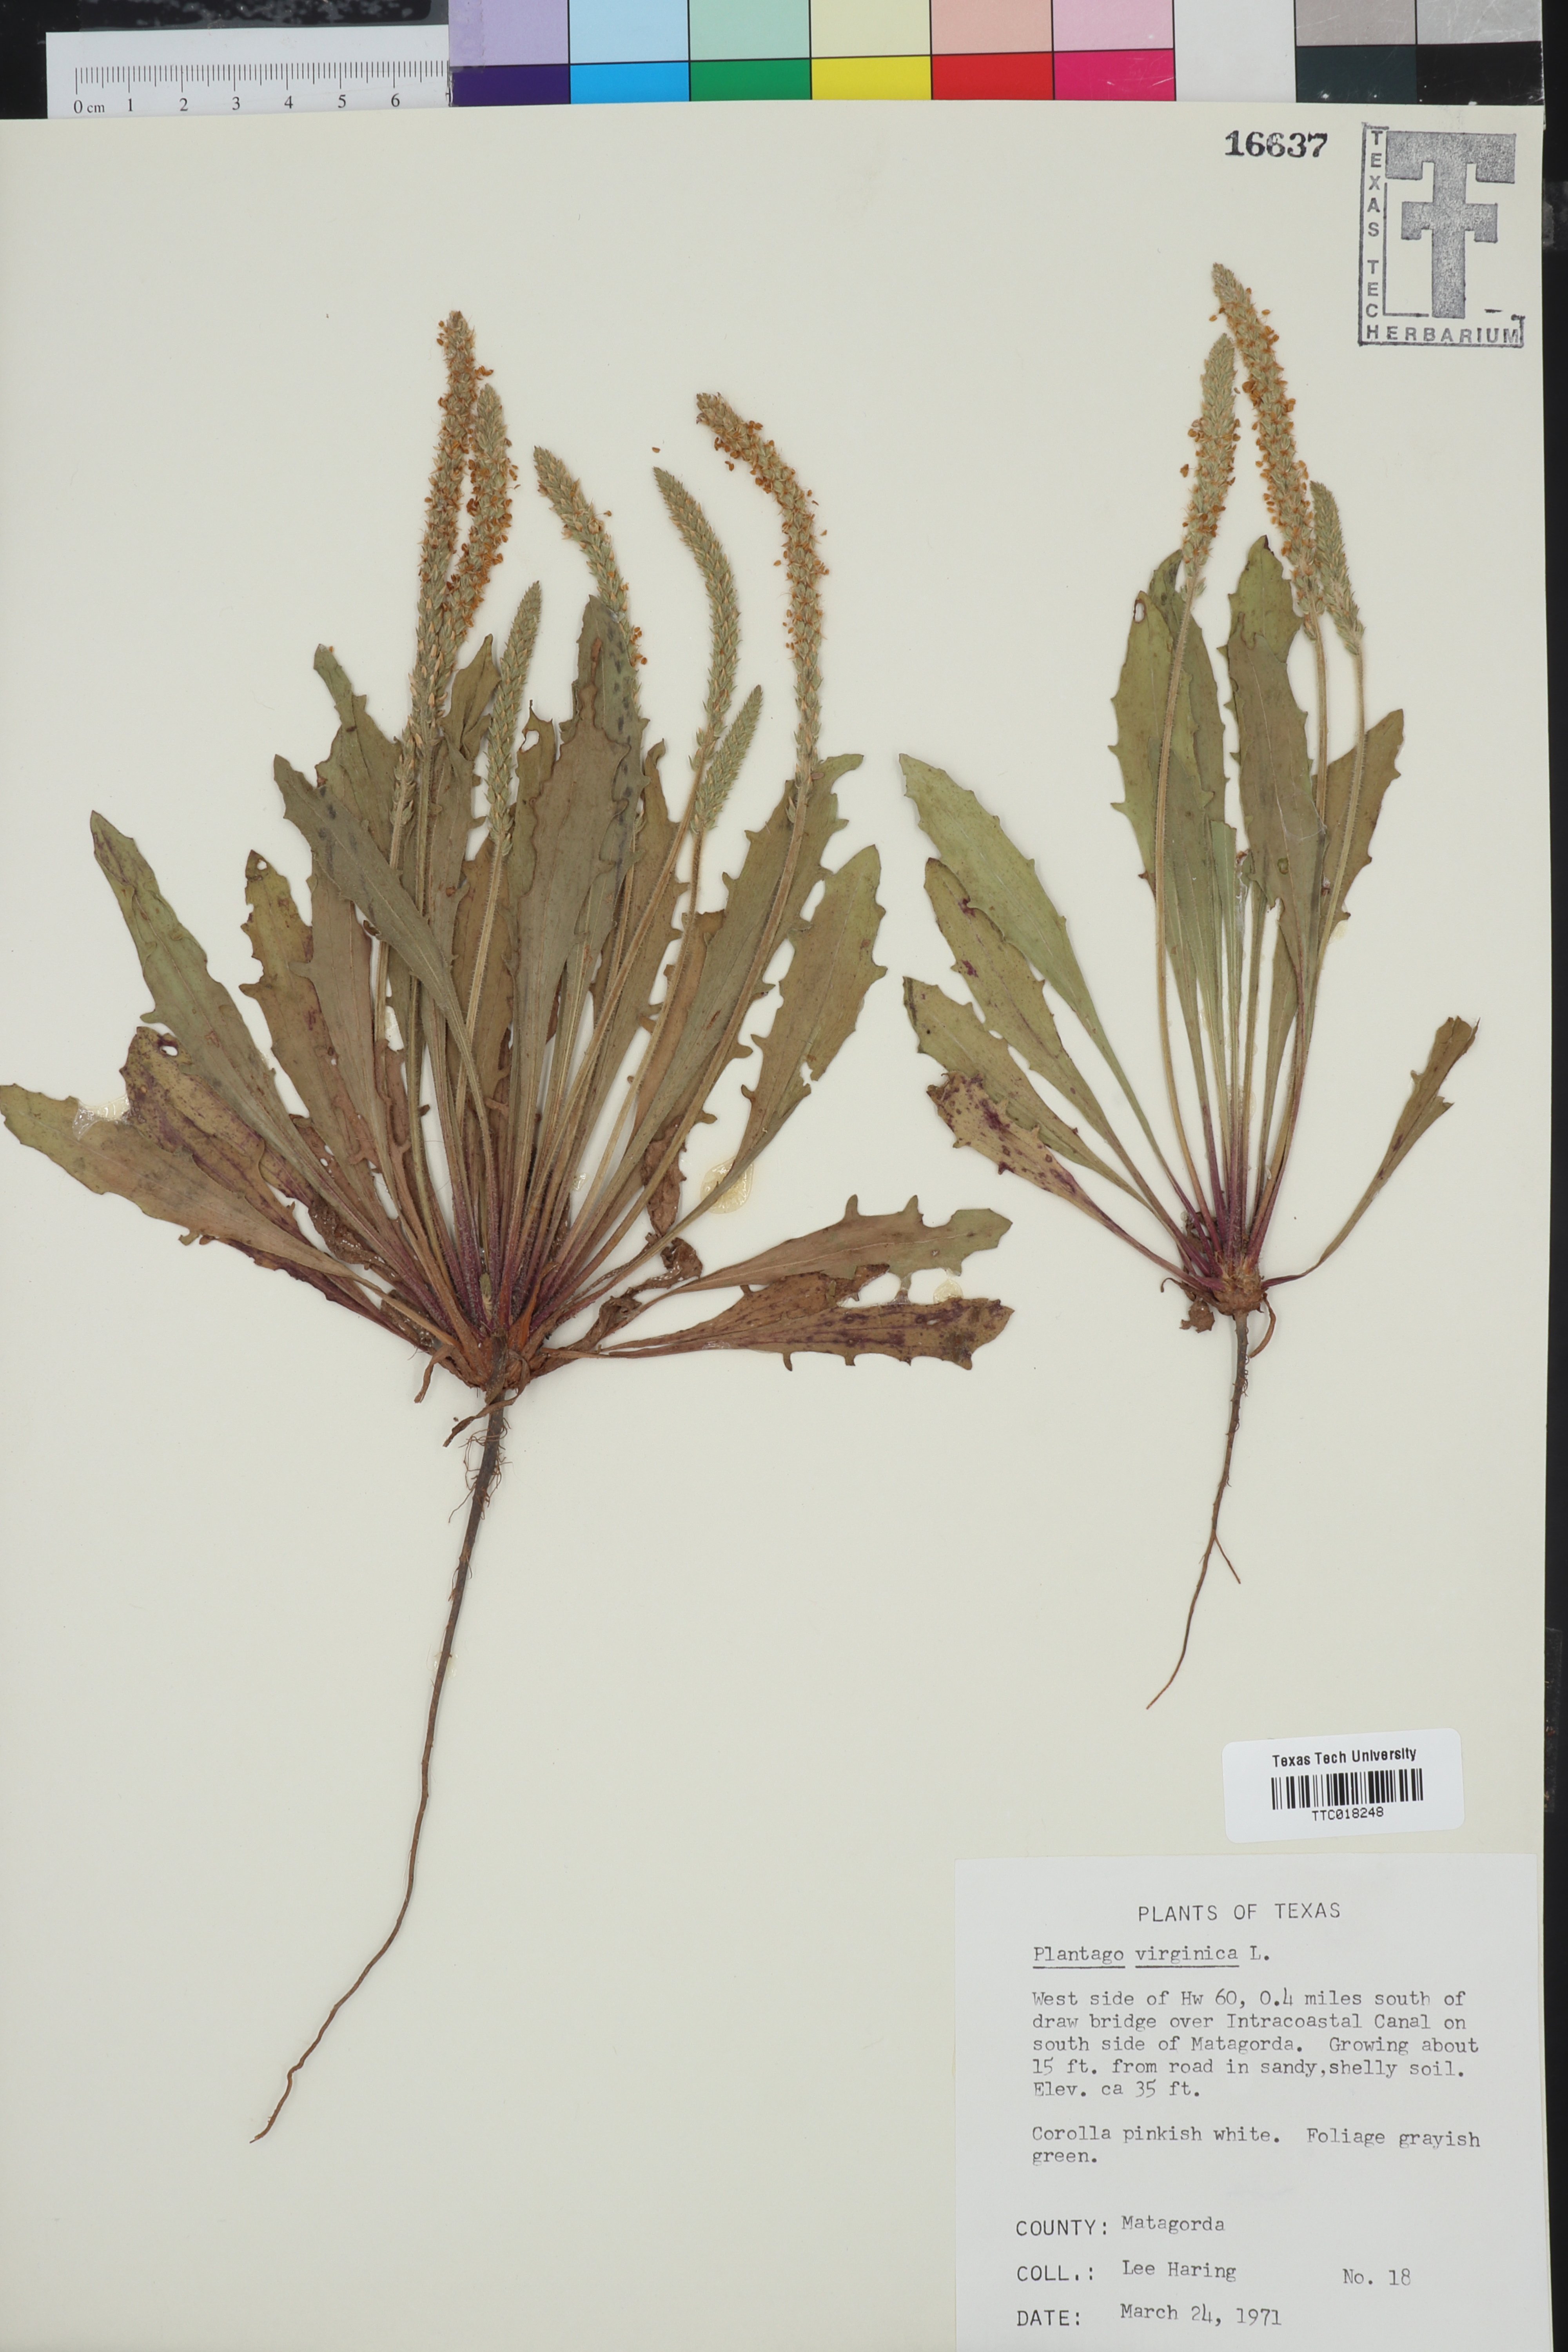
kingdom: Plantae
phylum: Tracheophyta
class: Magnoliopsida
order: Lamiales
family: Plantaginaceae
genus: Plantago
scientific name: Plantago virginica
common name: Hoary plantain
